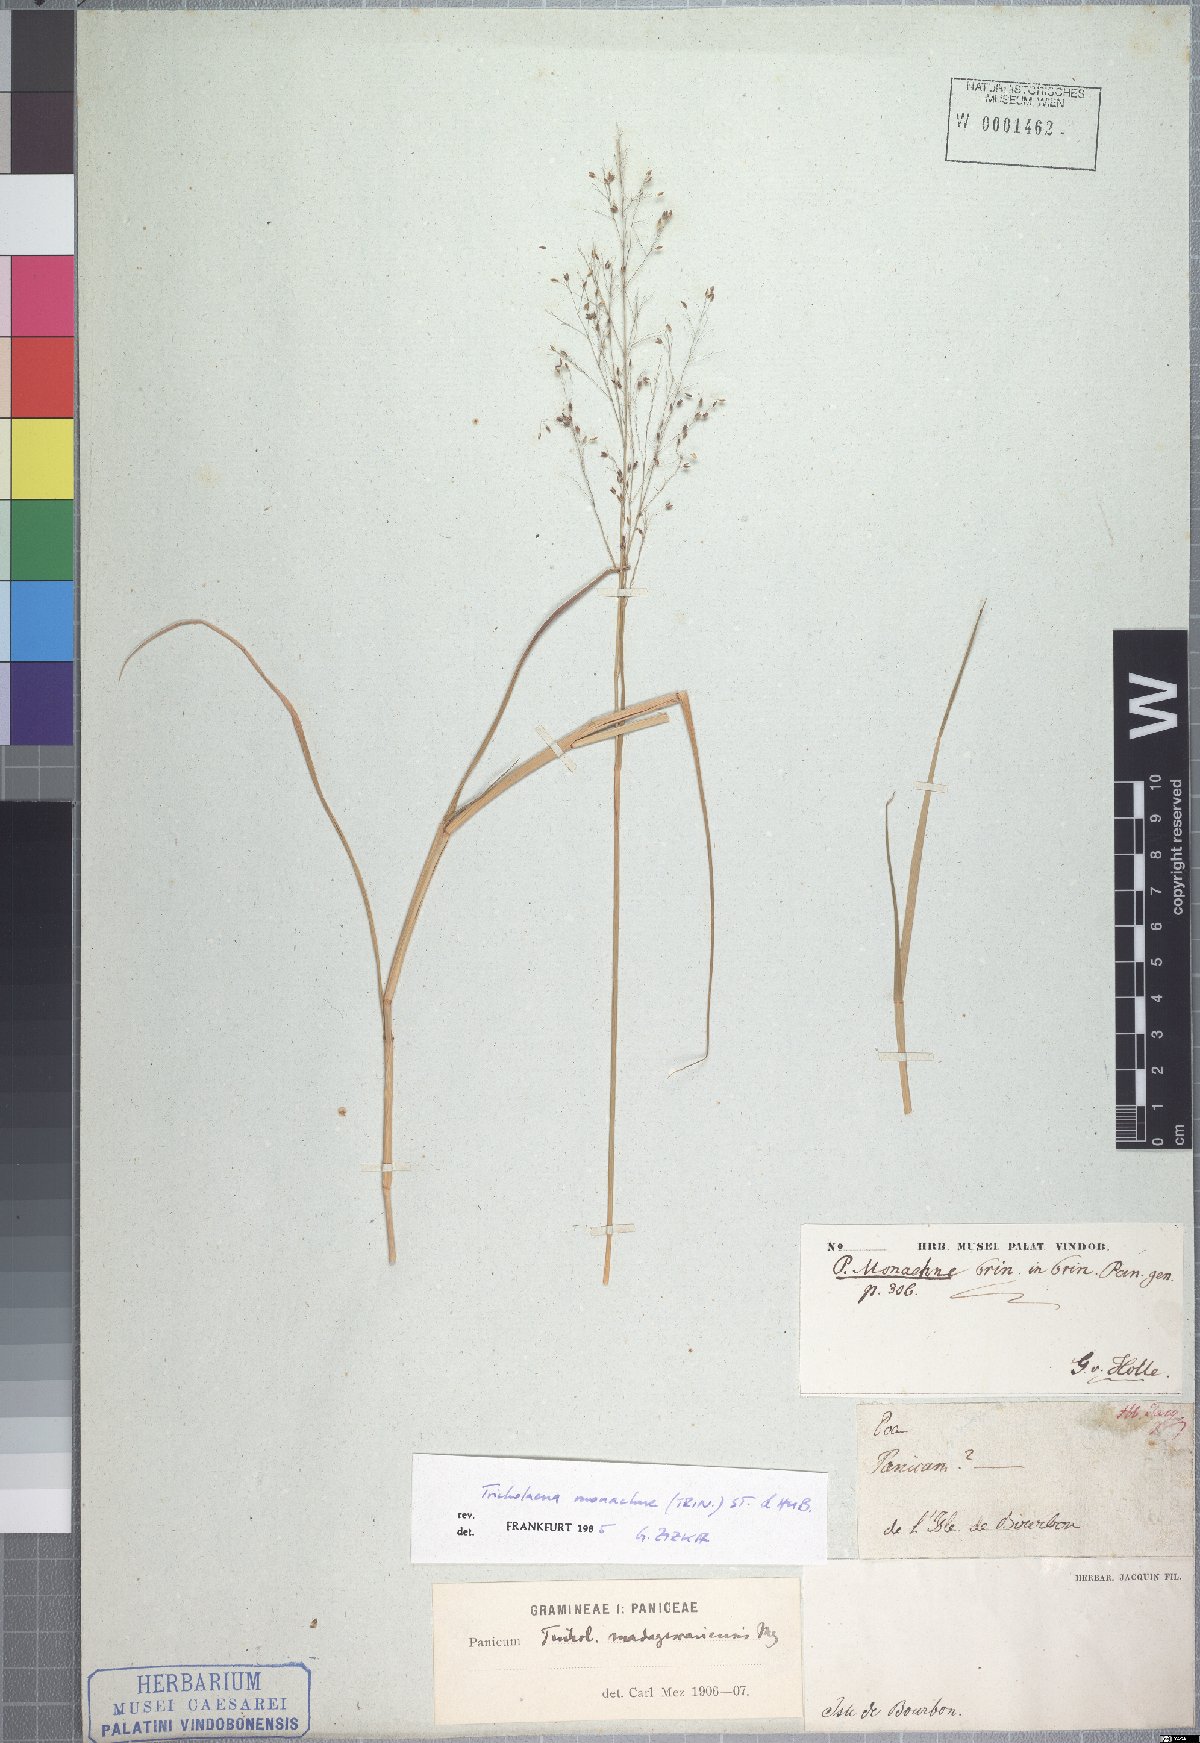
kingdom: Plantae
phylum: Tracheophyta
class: Liliopsida
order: Poales
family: Poaceae
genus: Tricholaena
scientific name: Tricholaena monachne
